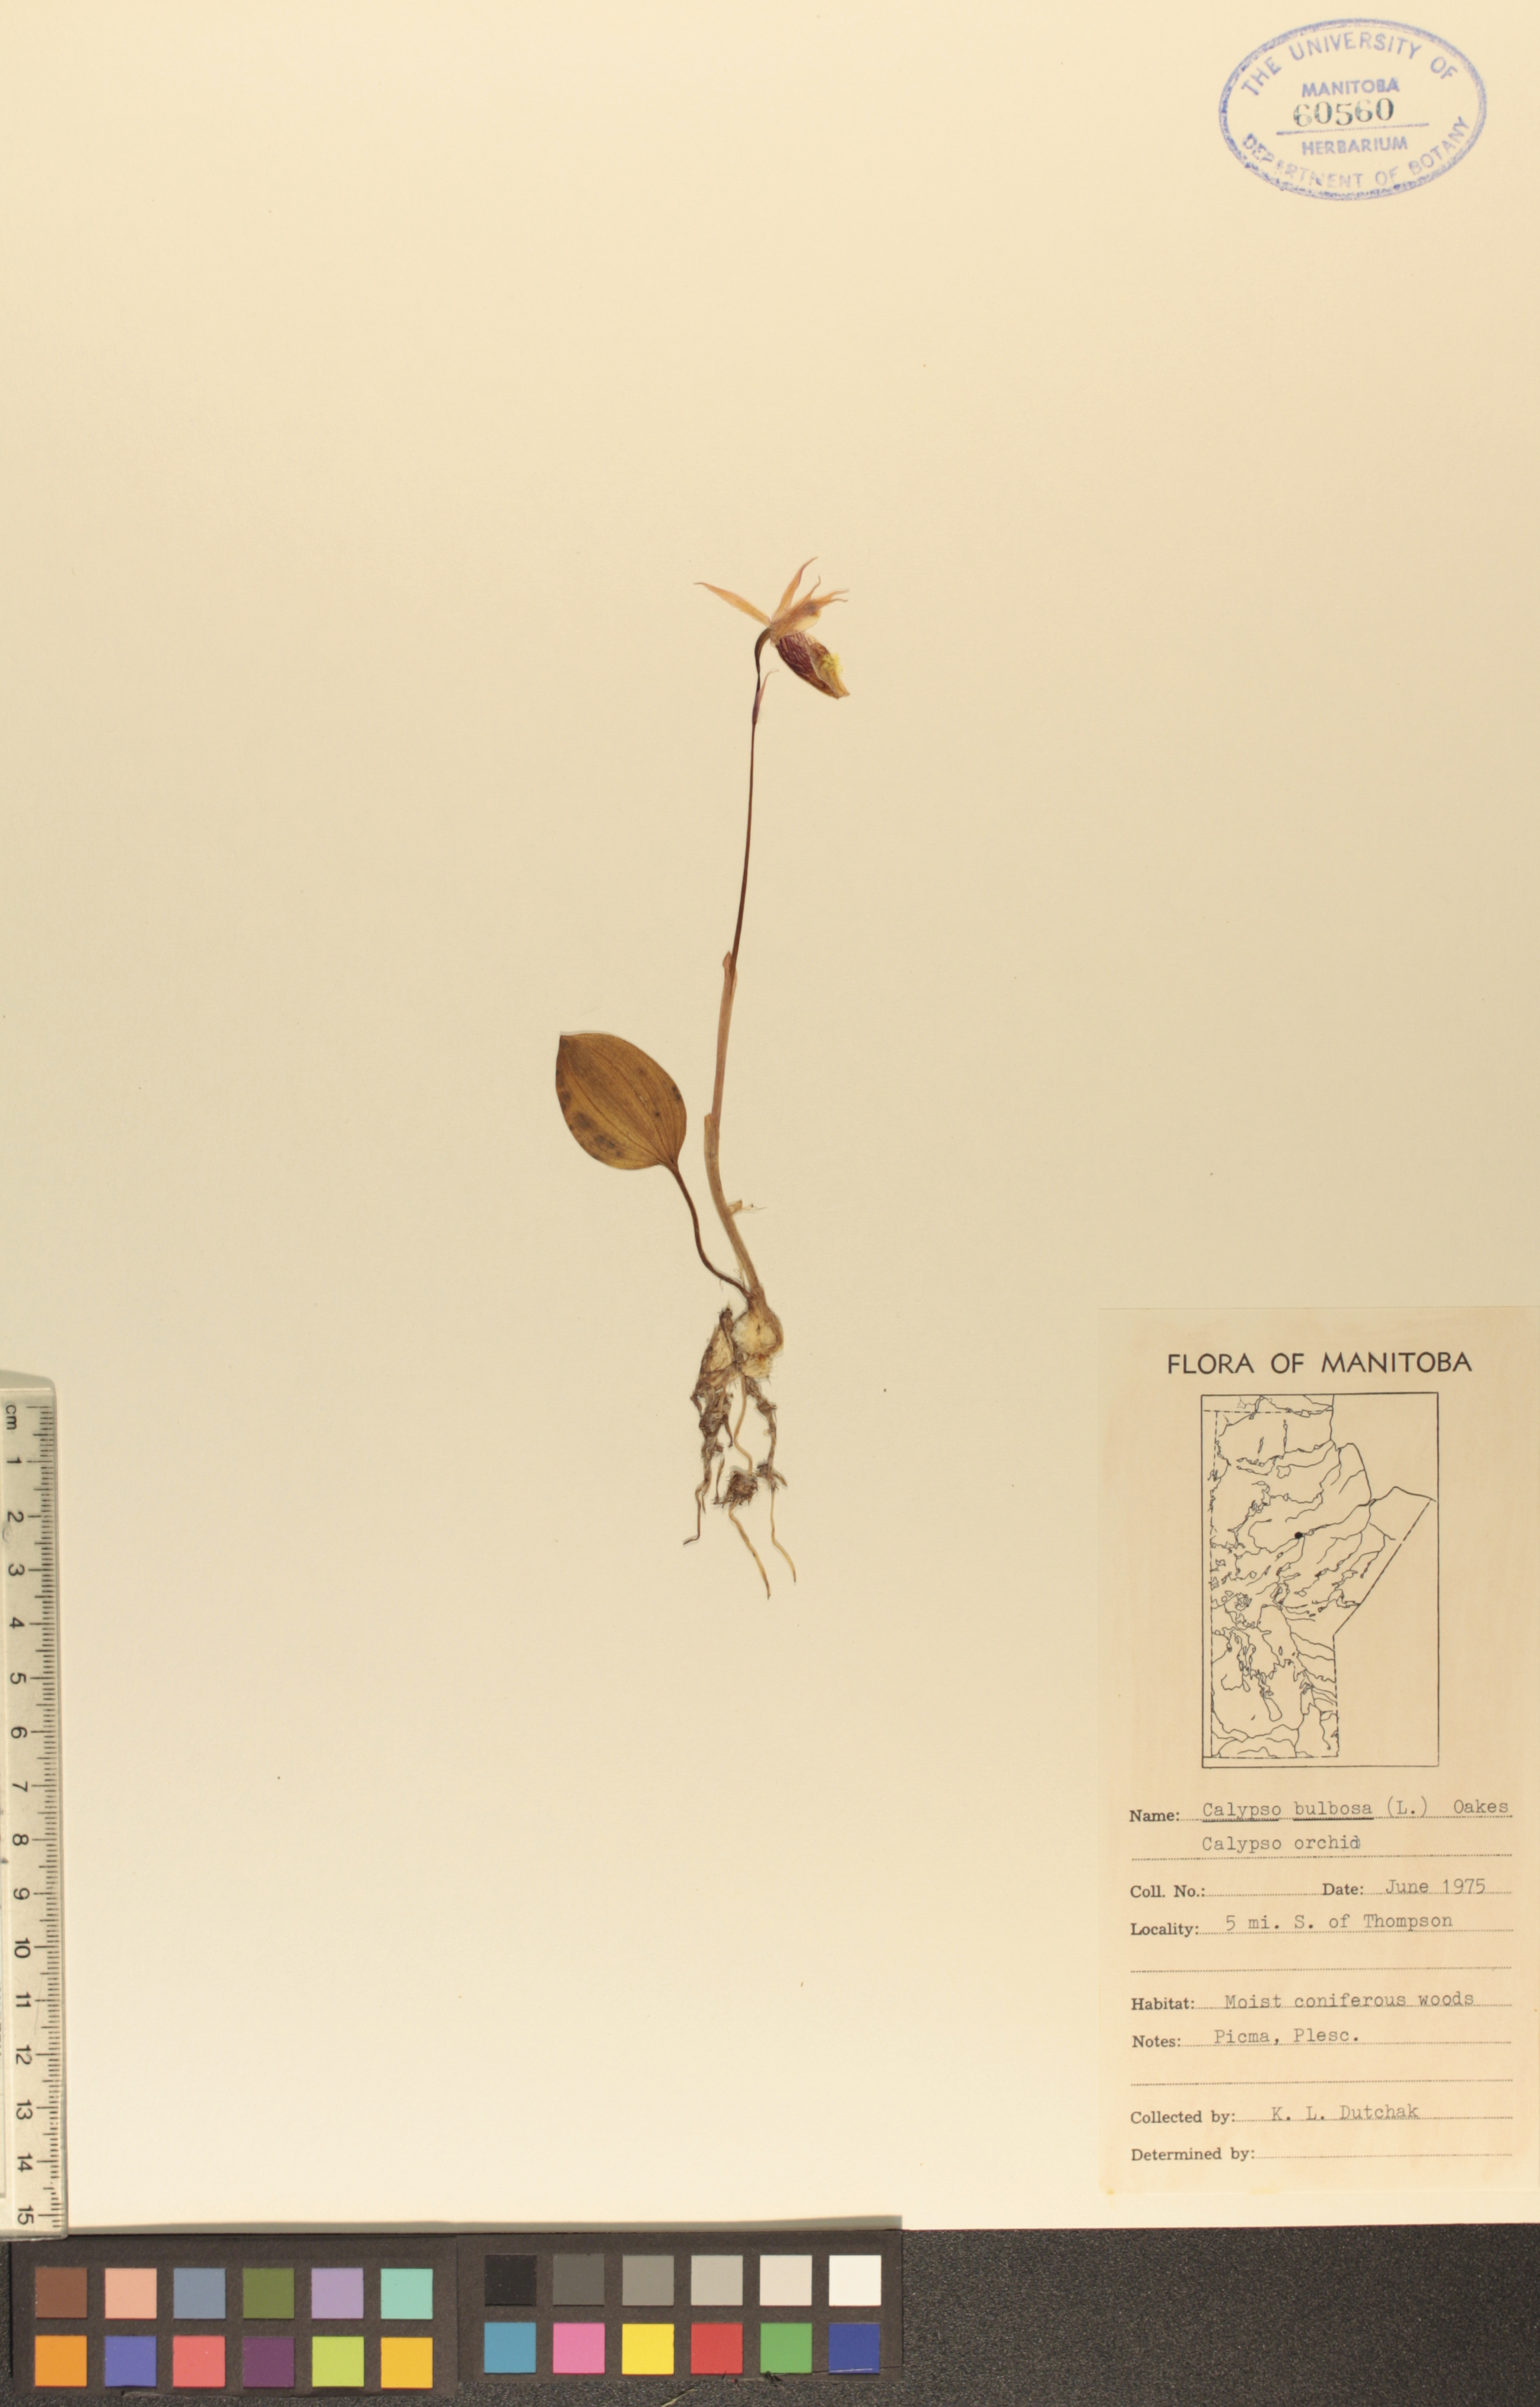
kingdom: Plantae
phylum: Tracheophyta
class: Liliopsida
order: Asparagales
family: Orchidaceae
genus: Calypso
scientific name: Calypso bulbosa
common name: Calypso
